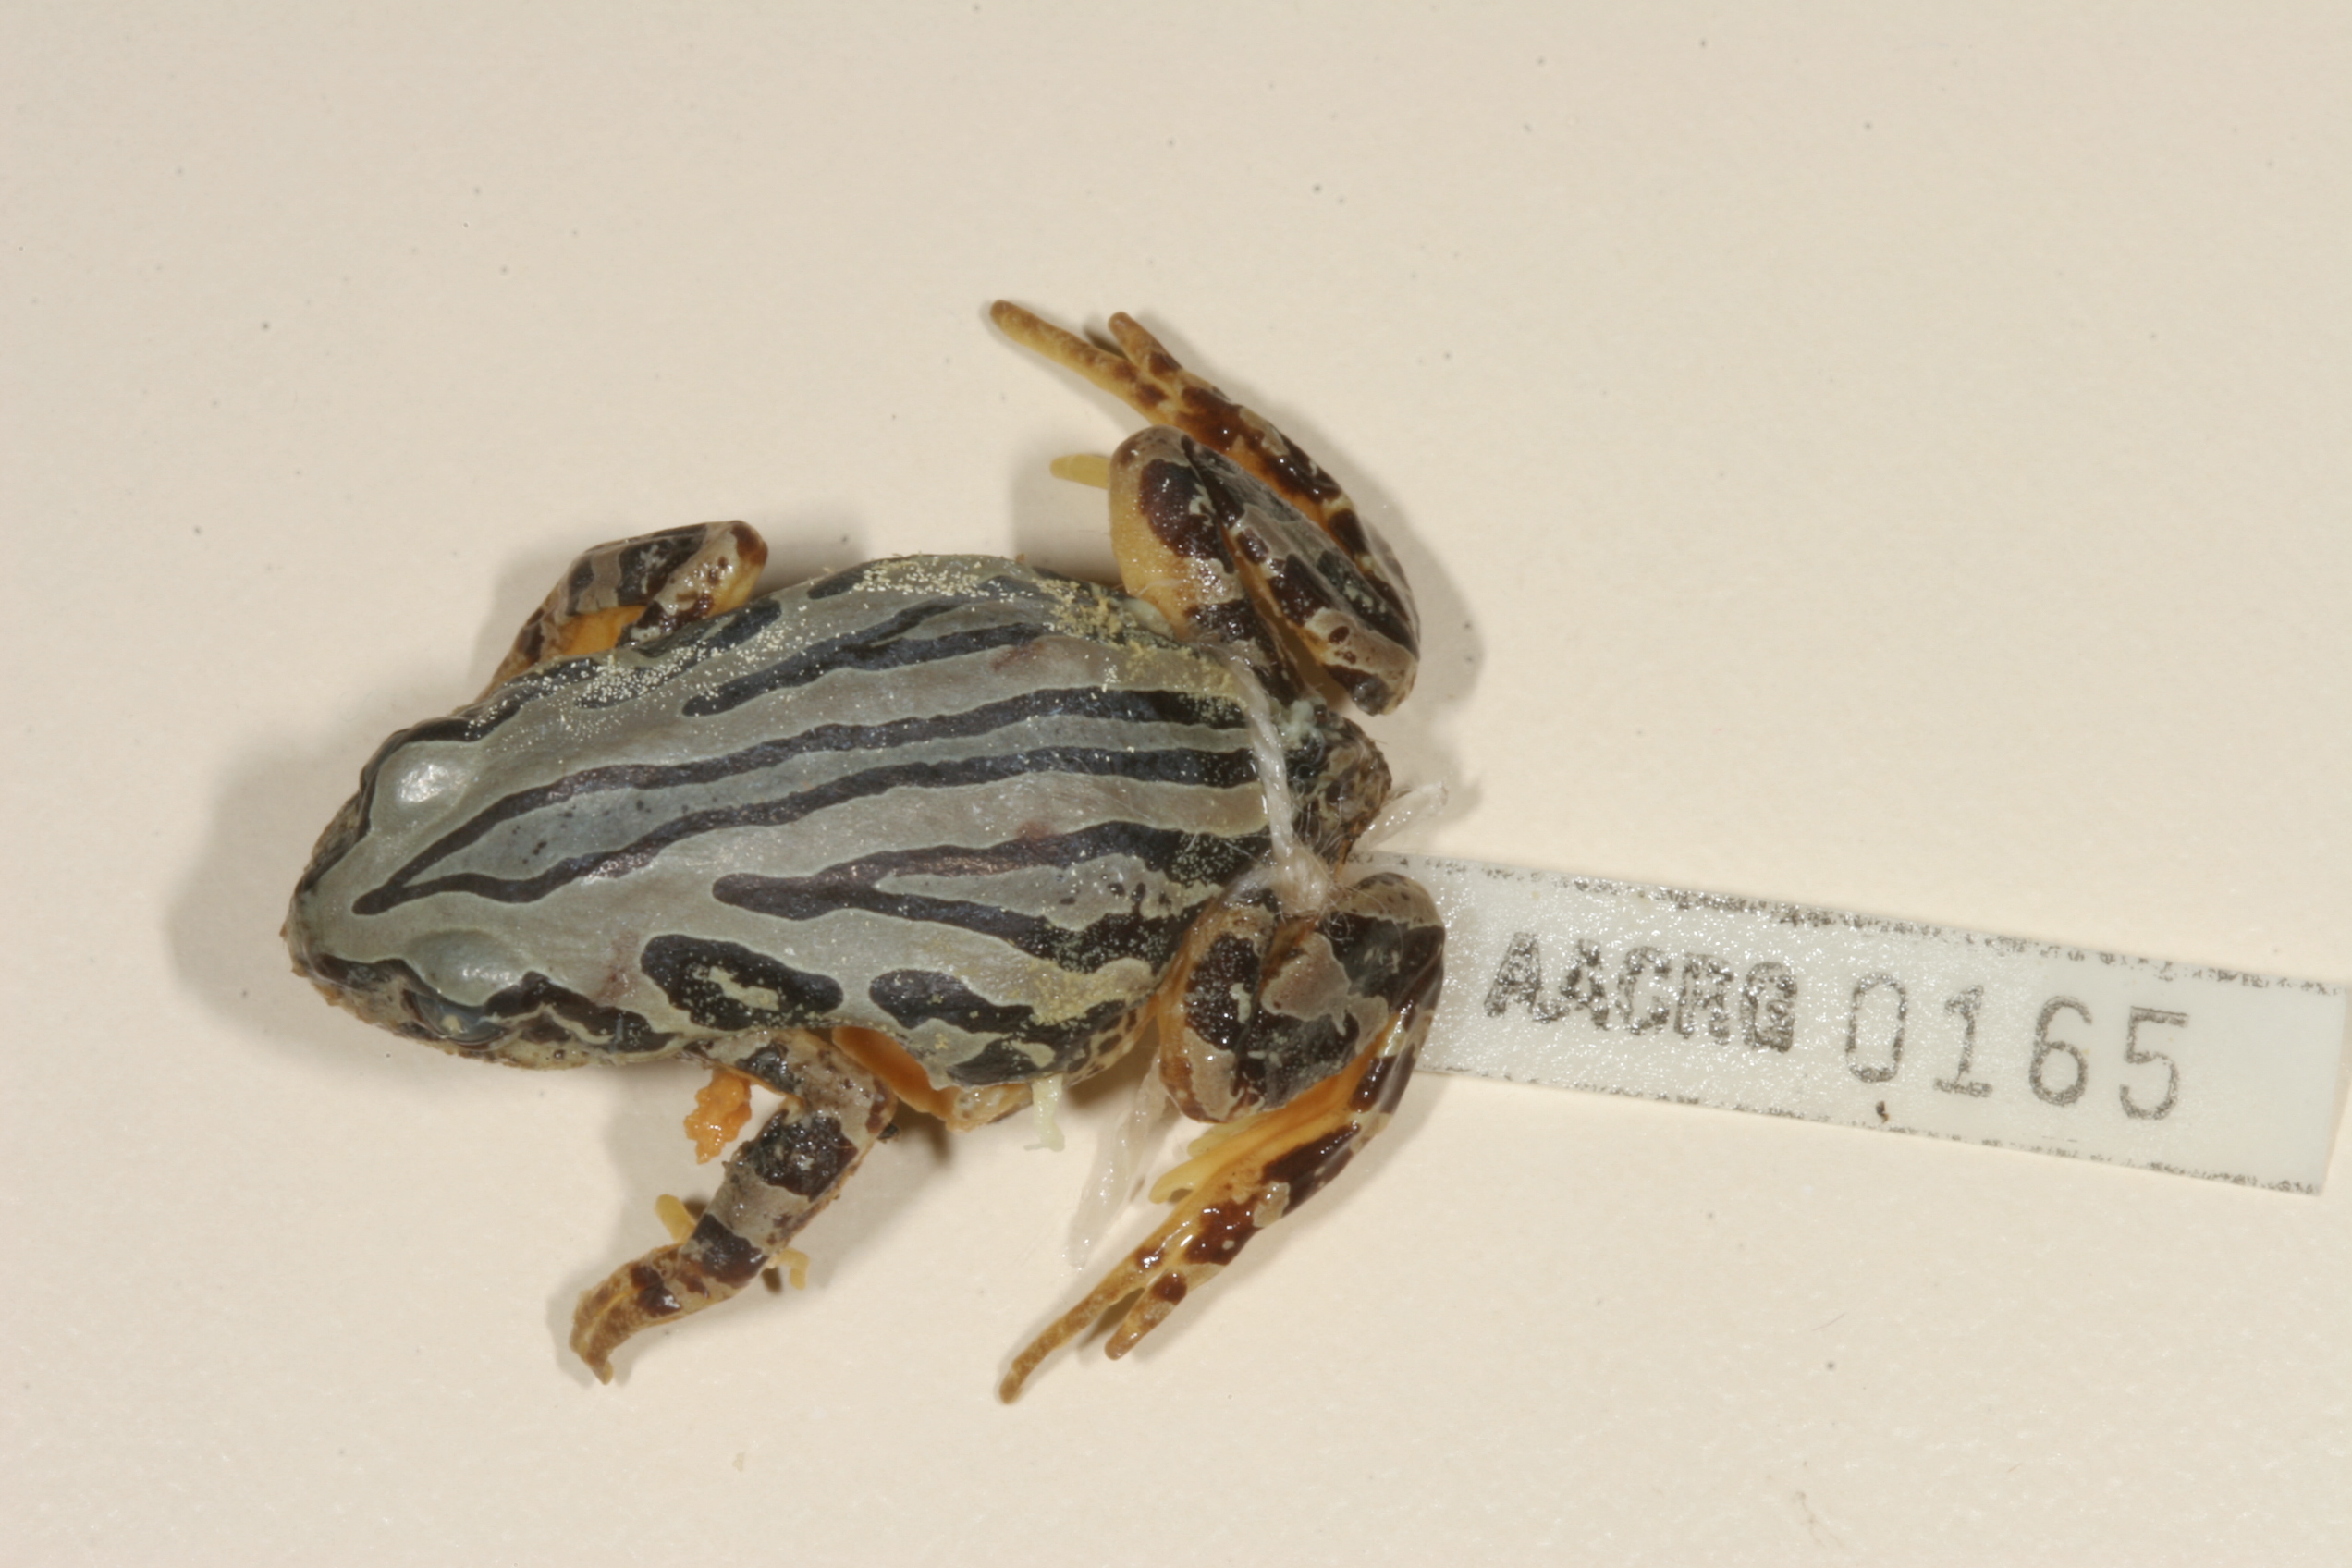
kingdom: Animalia
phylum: Chordata
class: Amphibia
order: Anura
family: Hyperoliidae
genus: Semnodactylus
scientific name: Semnodactylus wealii
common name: Weal's frog
